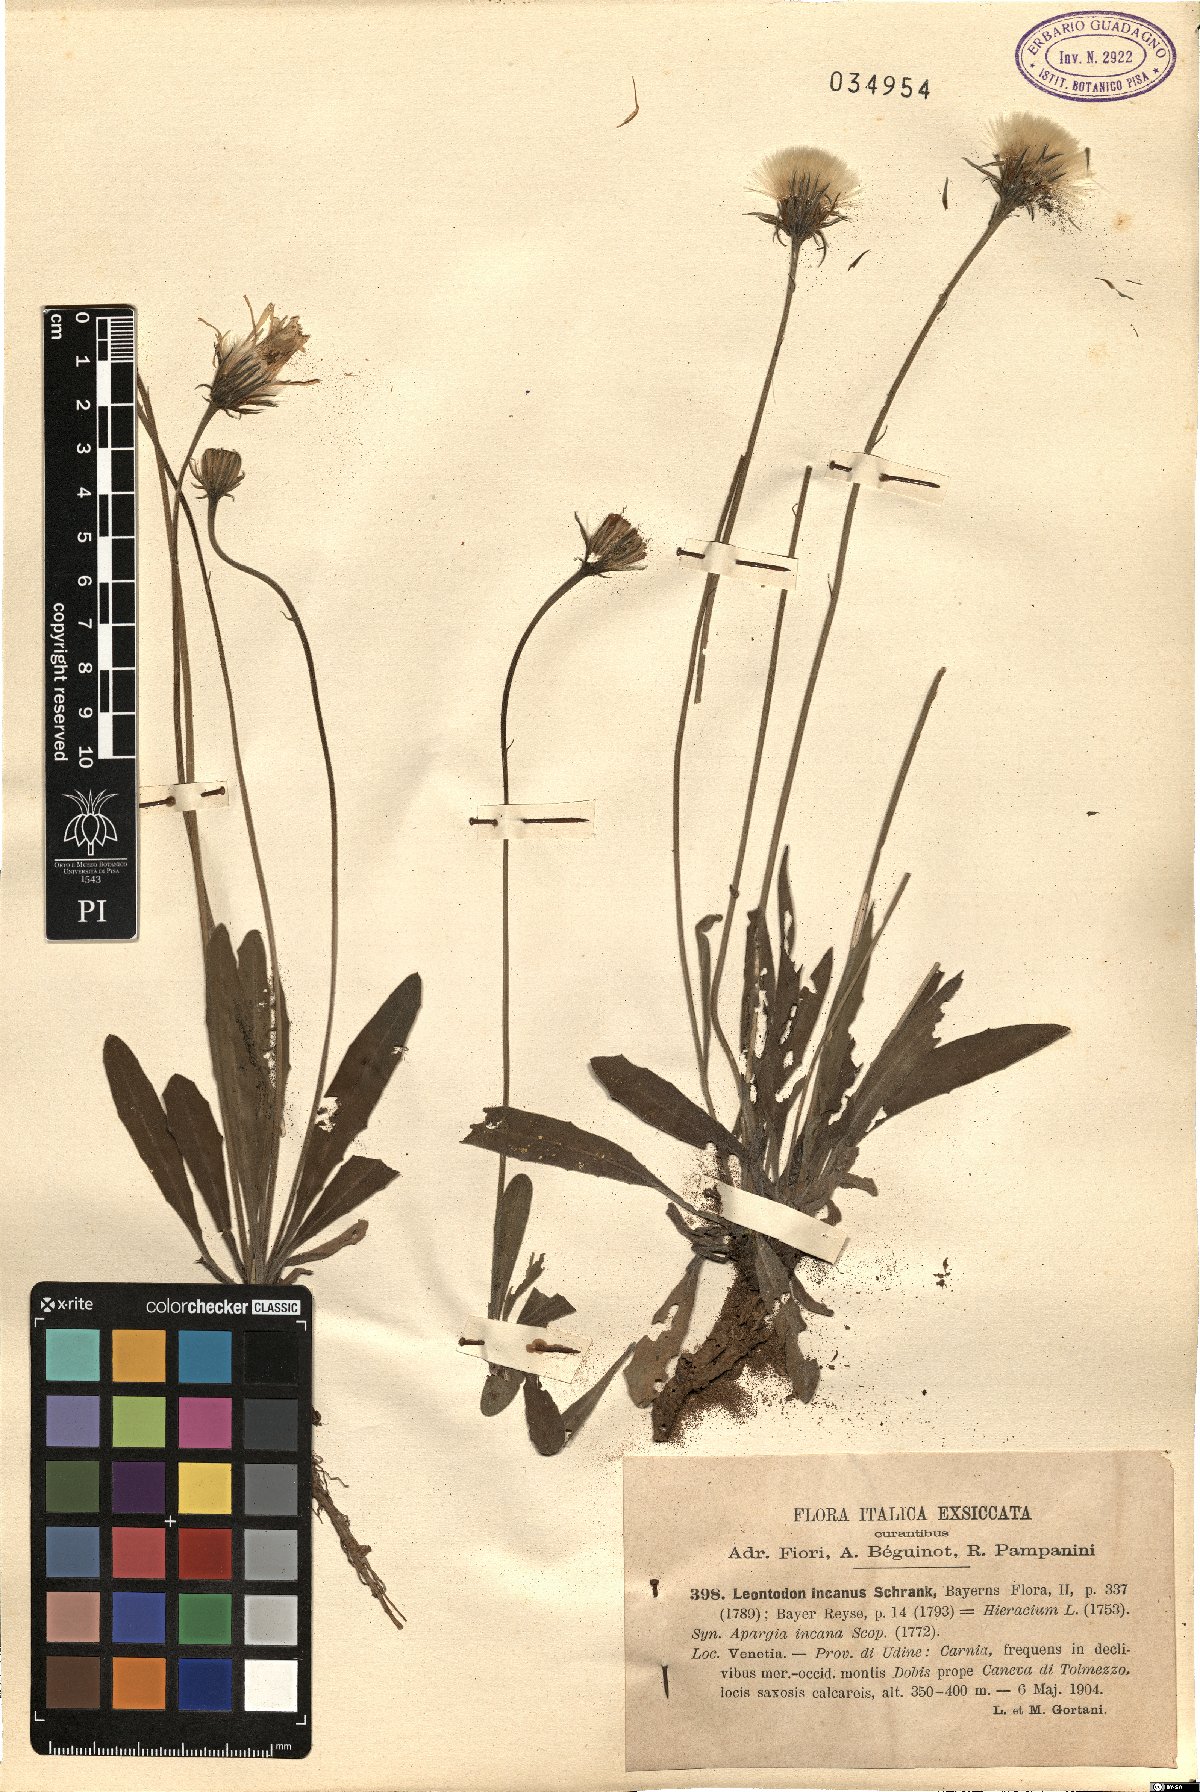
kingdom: Plantae
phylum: Tracheophyta
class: Magnoliopsida
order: Asterales
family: Asteraceae
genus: Leontodon
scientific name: Leontodon incanus
